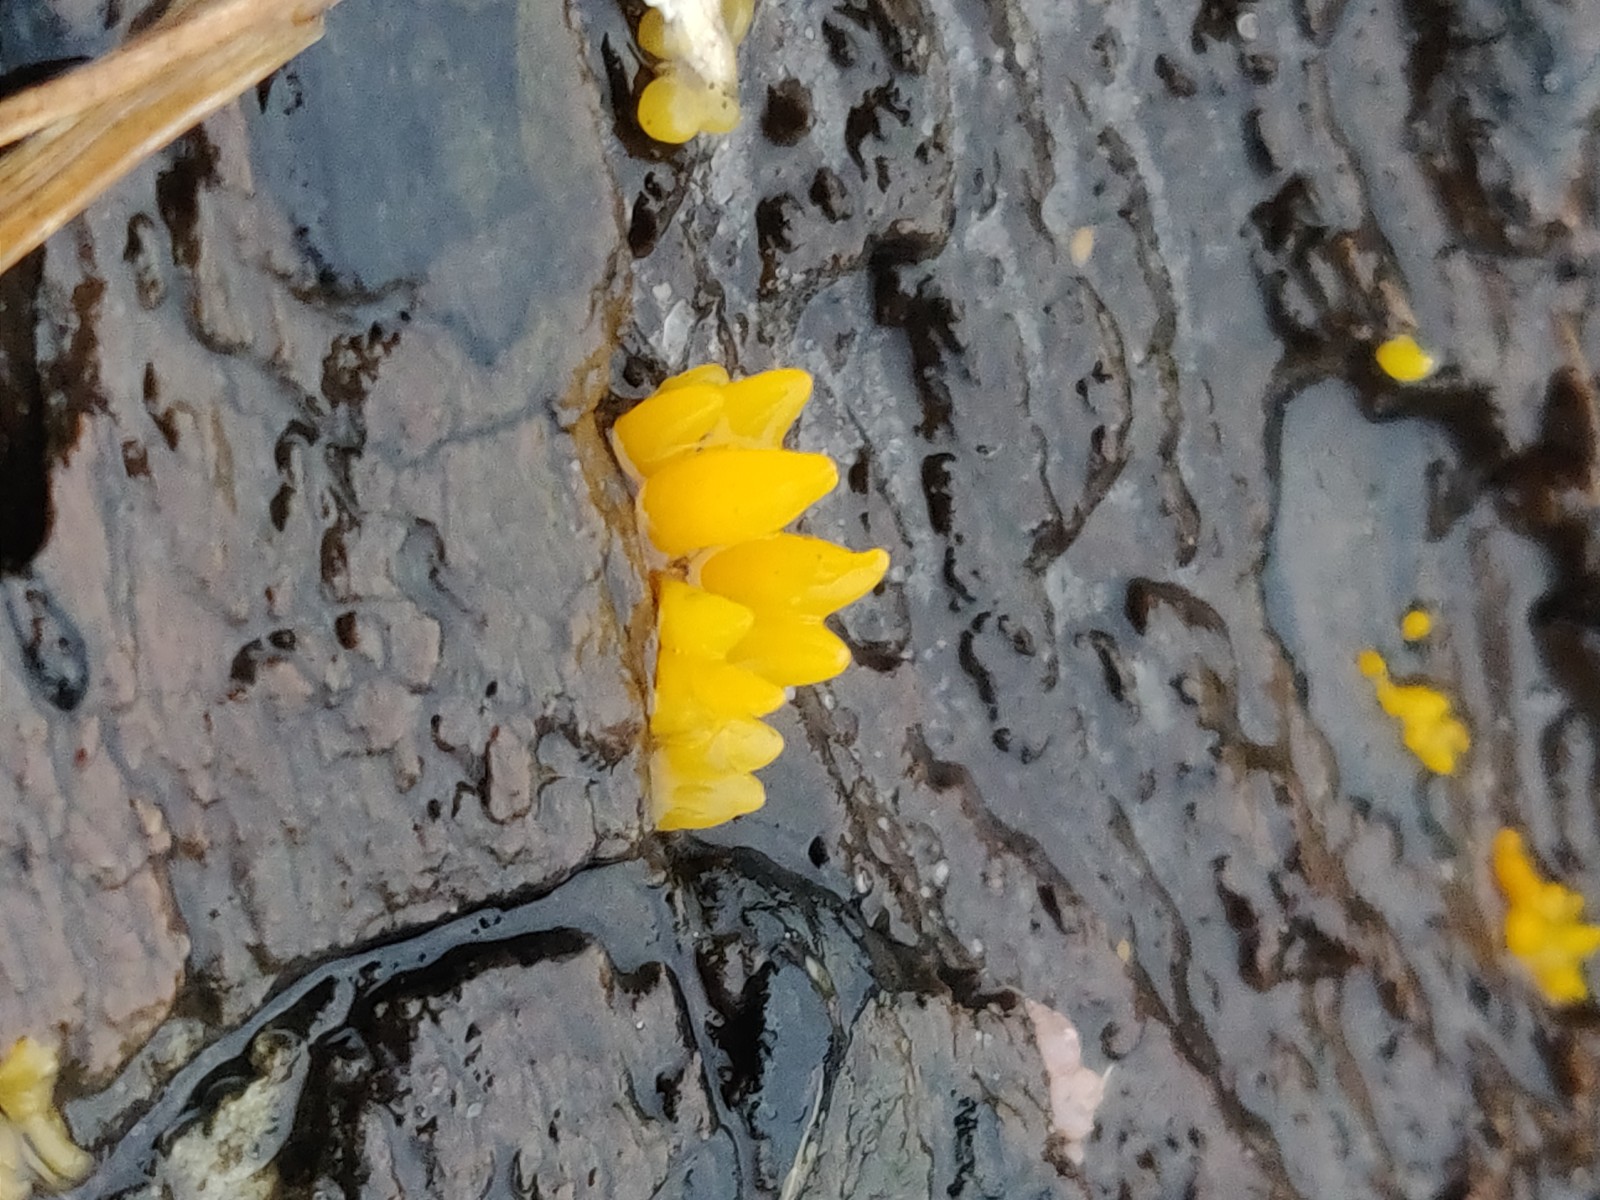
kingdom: Fungi
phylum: Basidiomycota
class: Dacrymycetes
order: Dacrymycetales
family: Dacrymycetaceae
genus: Calocera
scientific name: Calocera
